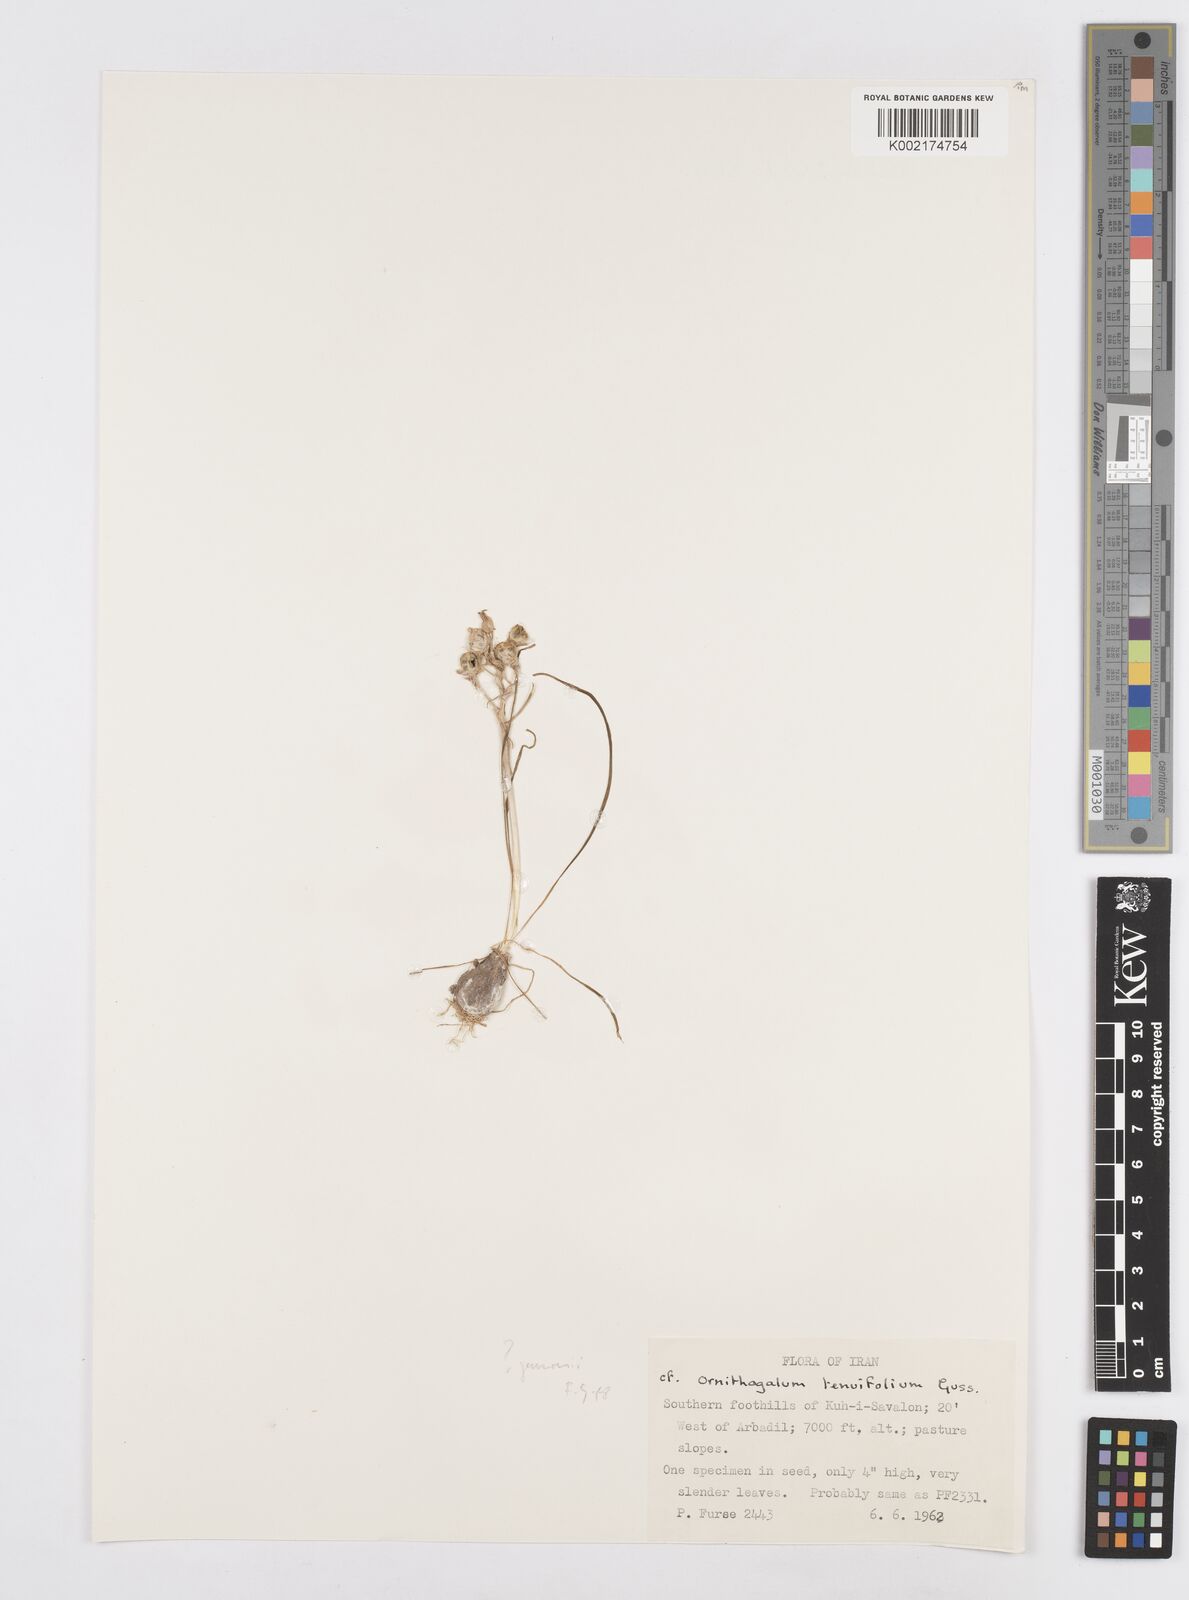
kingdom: Plantae
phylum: Tracheophyta
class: Liliopsida
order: Asparagales
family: Asparagaceae
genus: Ornithogalum
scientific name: Ornithogalum gussonei
